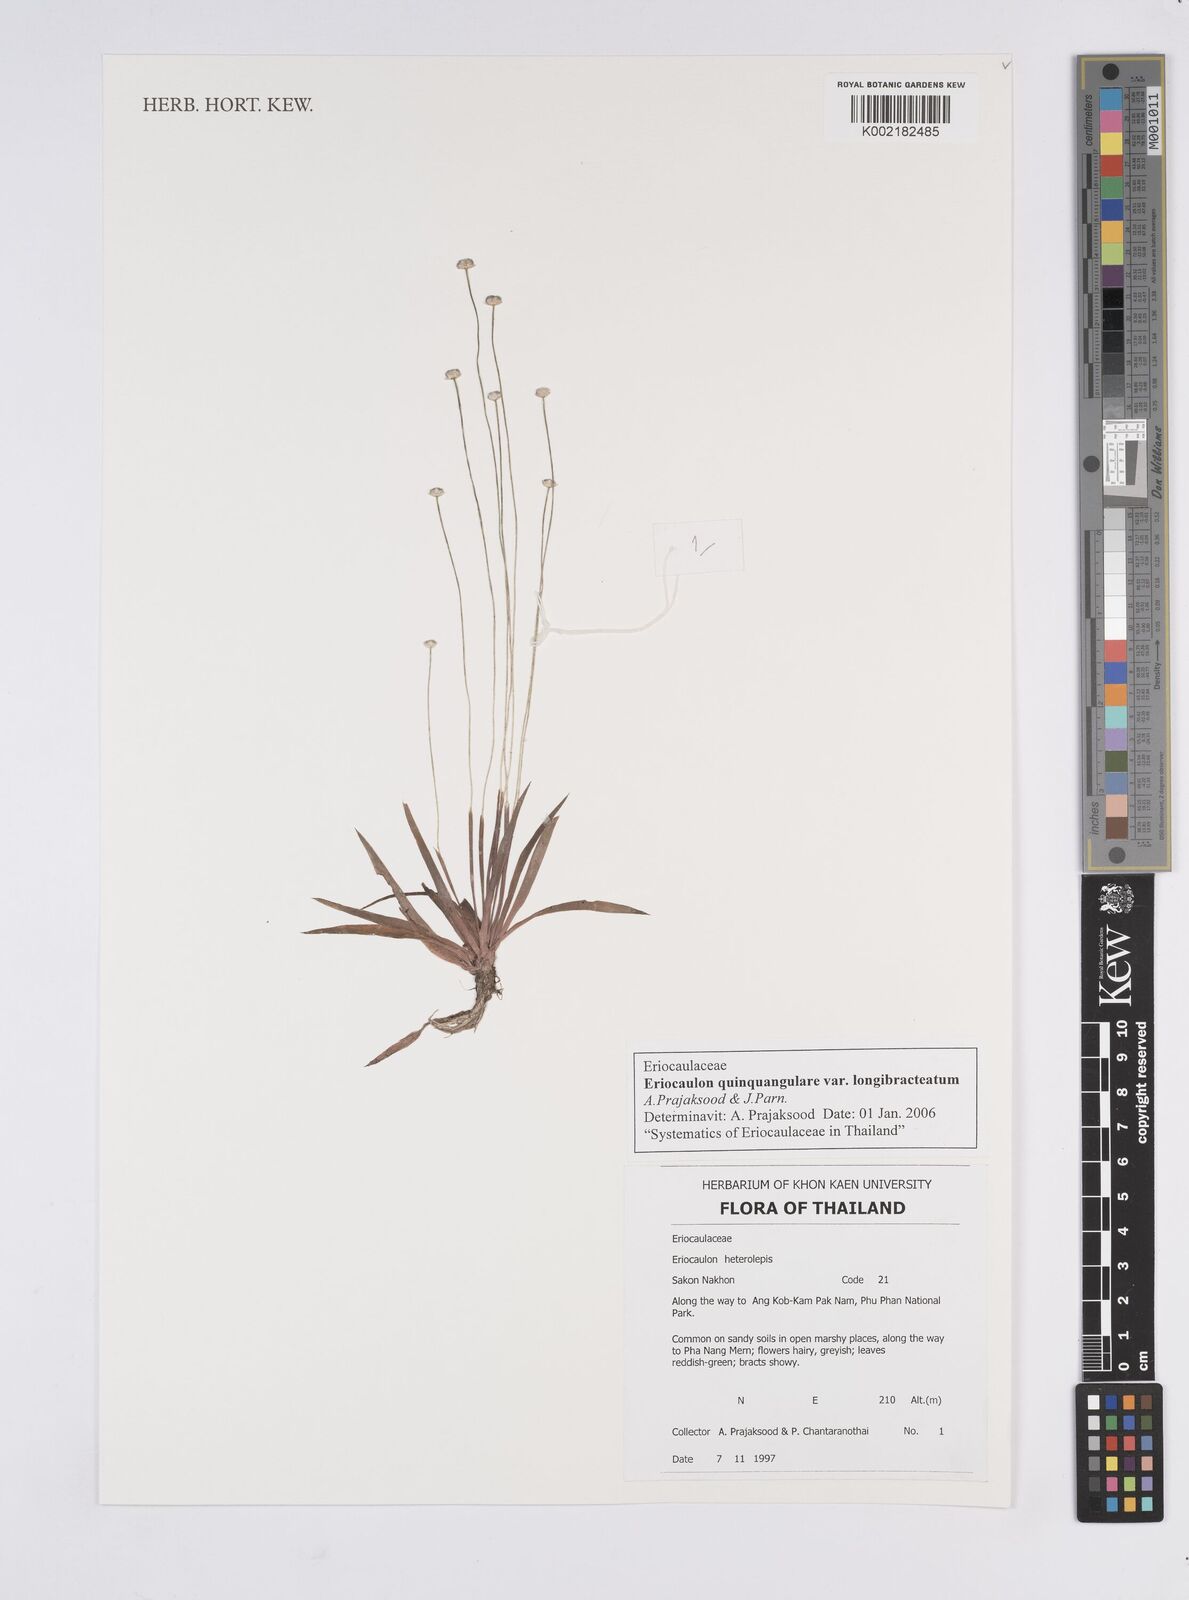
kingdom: Plantae
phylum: Tracheophyta
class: Liliopsida
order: Poales
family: Eriocaulaceae
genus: Eriocaulon
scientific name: Eriocaulon quinquangulare
